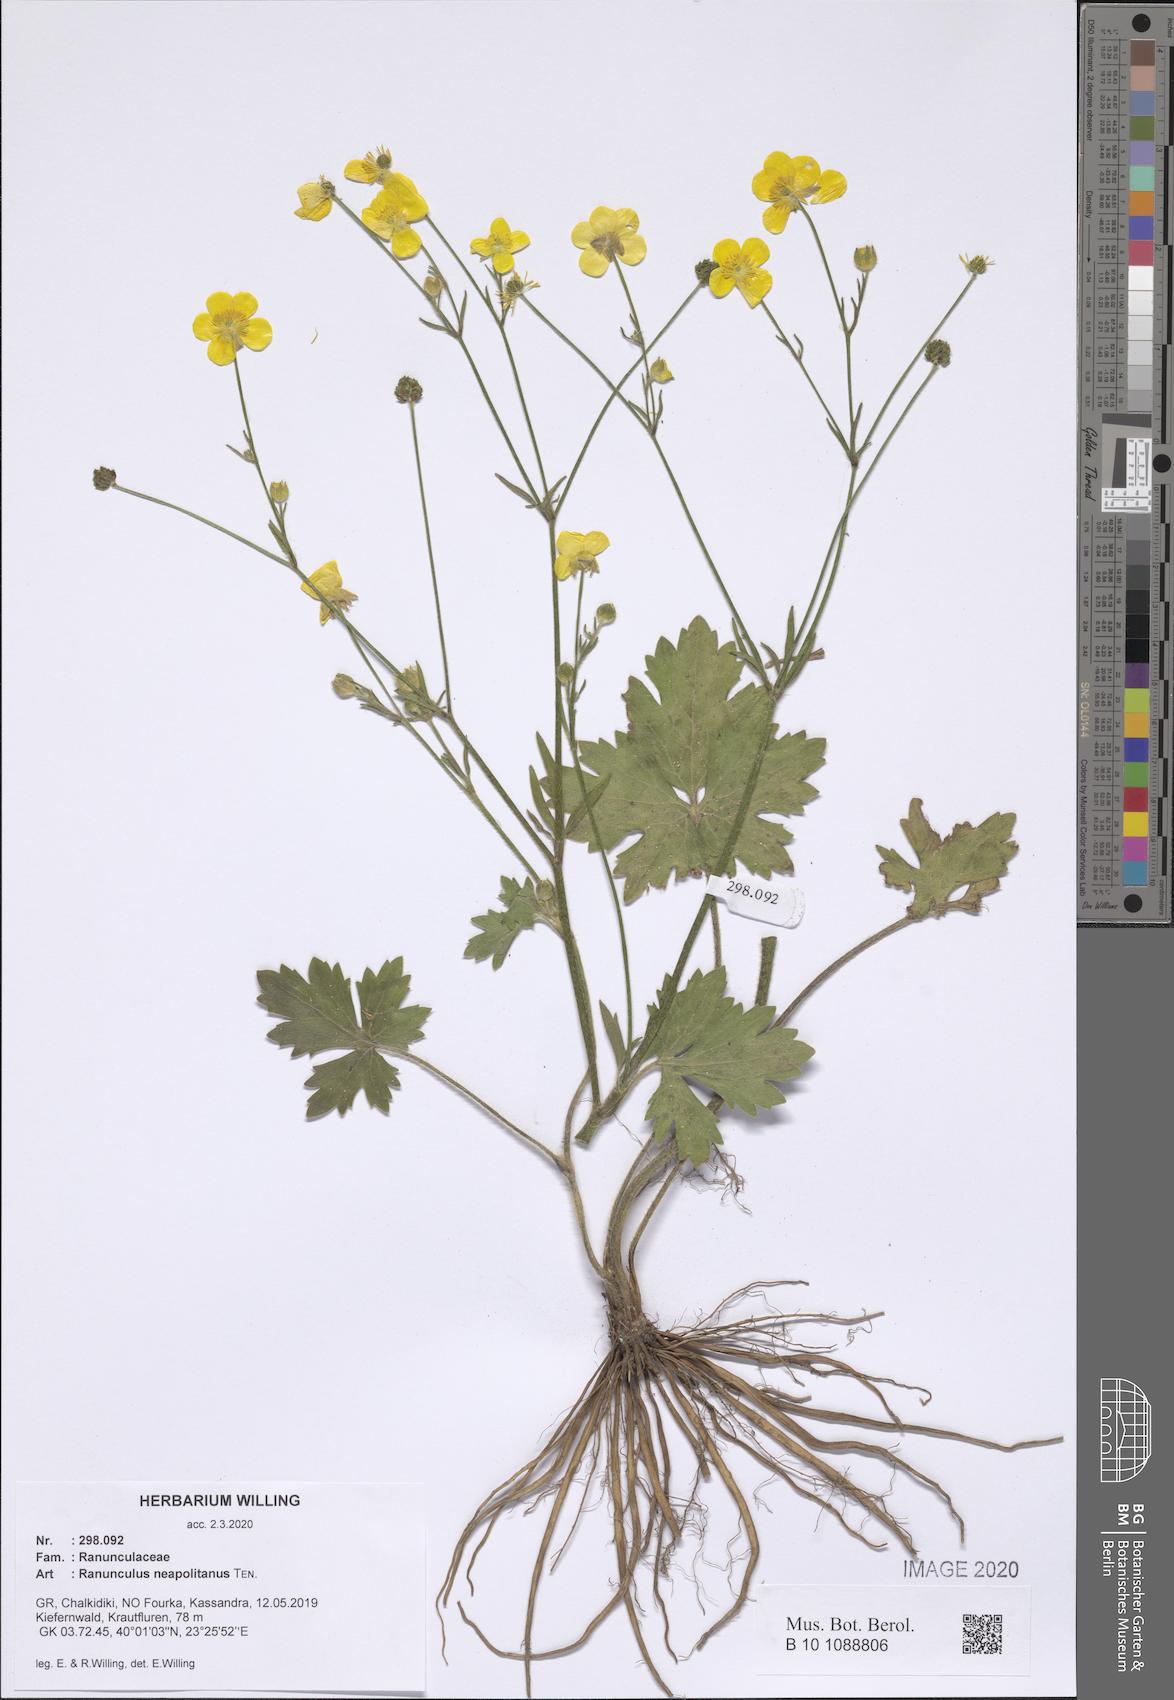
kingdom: Plantae
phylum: Tracheophyta
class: Magnoliopsida
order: Ranunculales
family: Ranunculaceae
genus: Ranunculus
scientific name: Ranunculus neapolitanus
